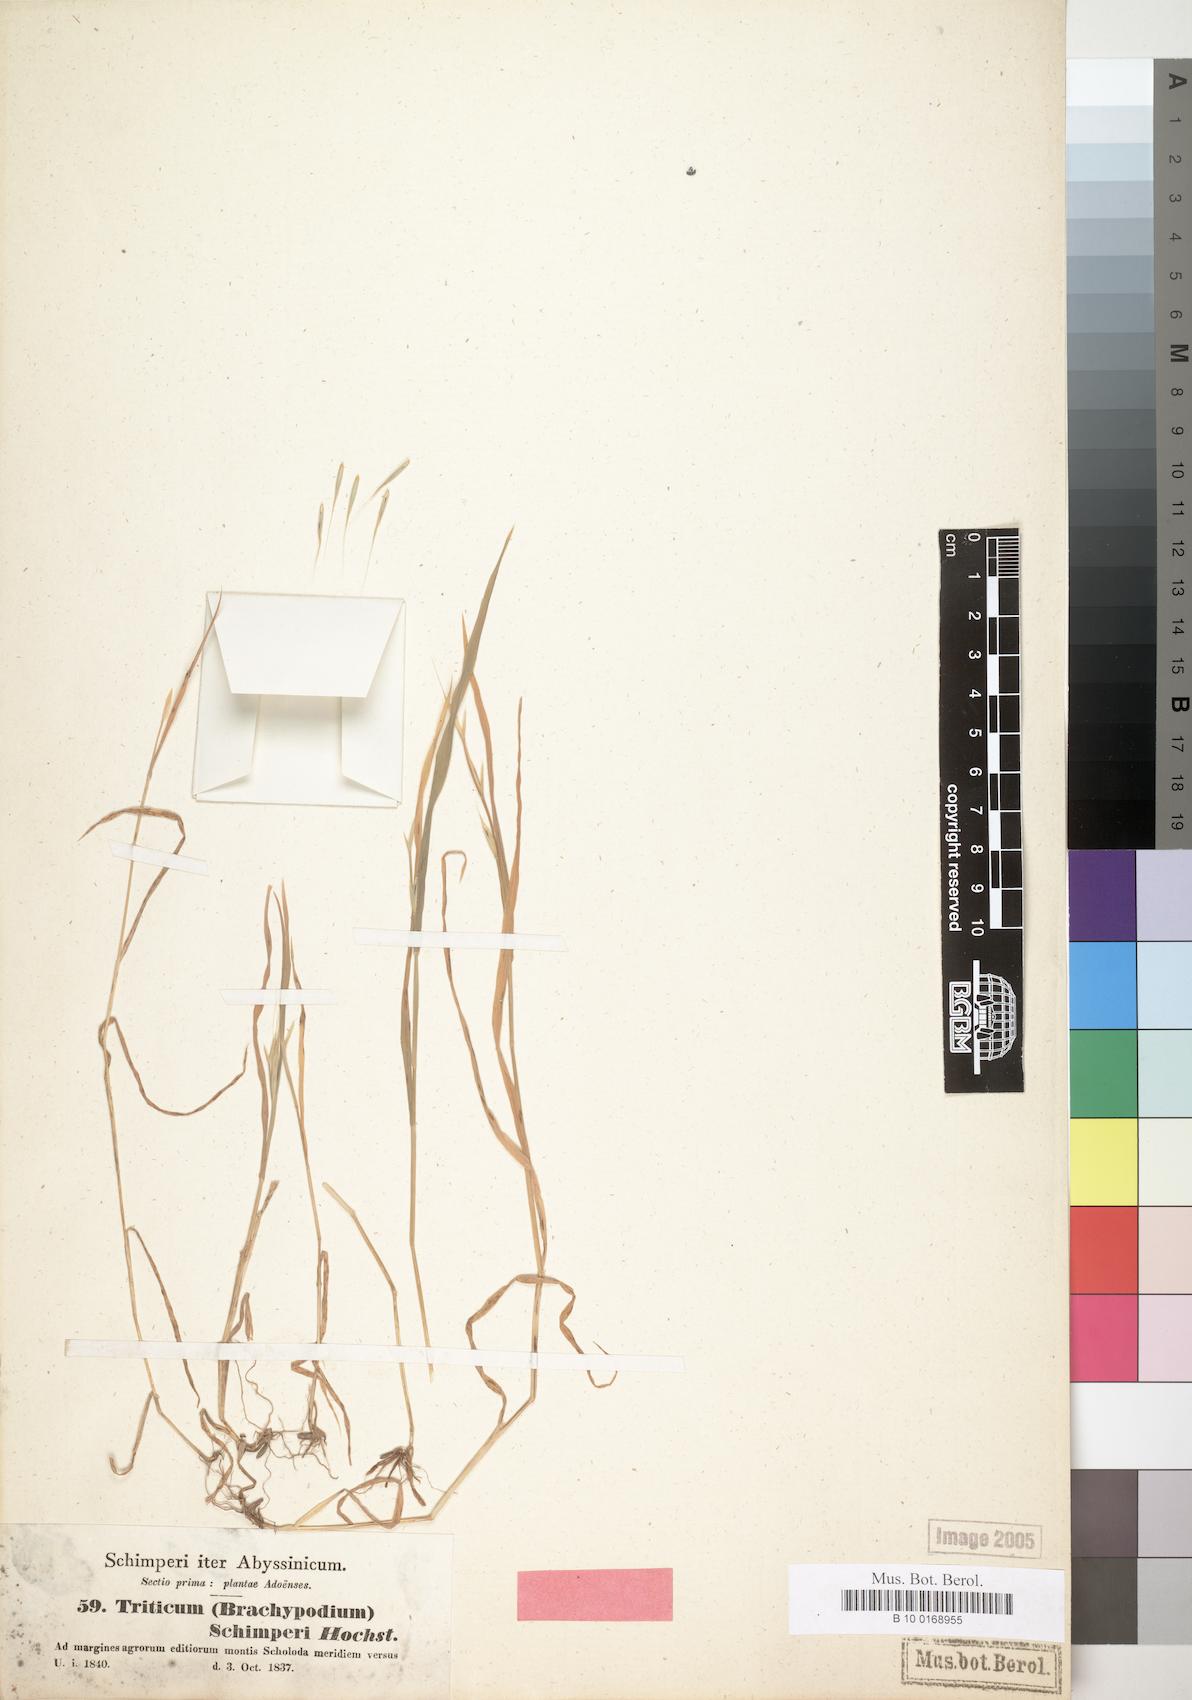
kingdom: Plantae
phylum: Tracheophyta
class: Liliopsida
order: Poales
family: Poaceae
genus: Triticum
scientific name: Triticum schimperi
